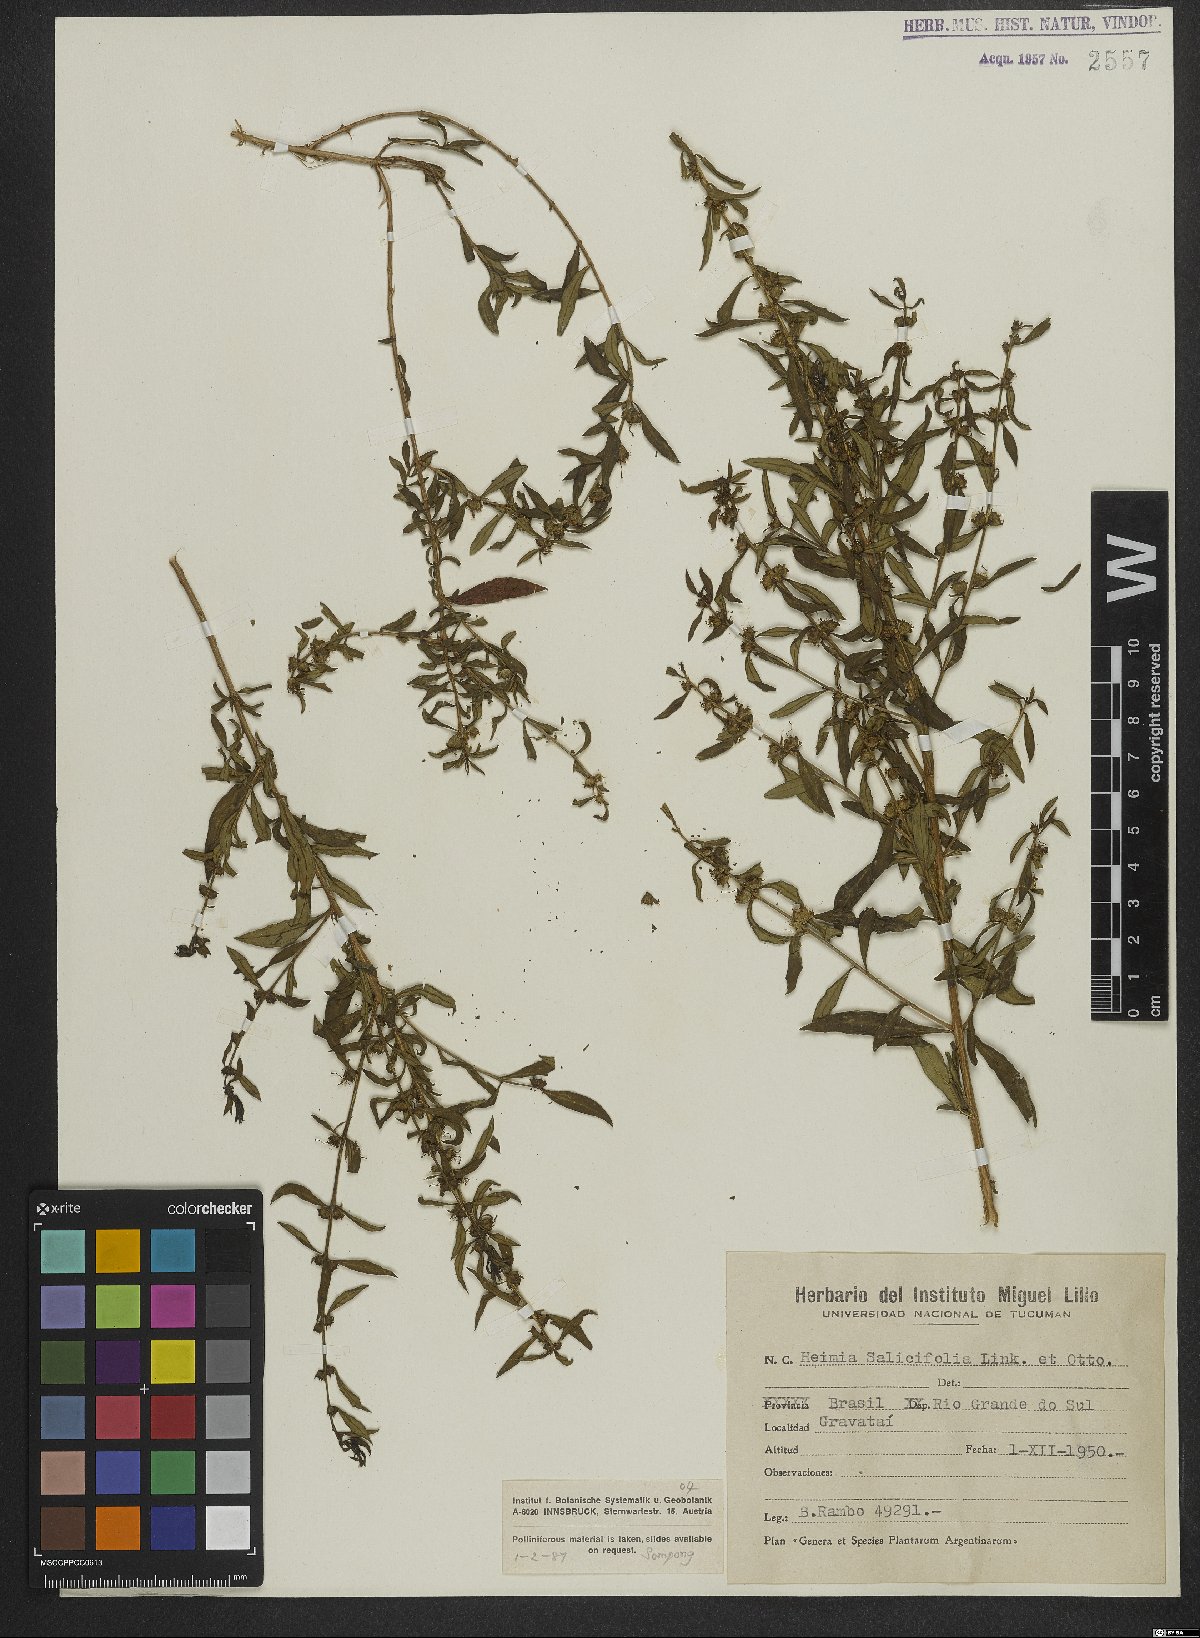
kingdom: Plantae
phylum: Tracheophyta
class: Magnoliopsida
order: Myrtales
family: Lythraceae
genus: Heimia
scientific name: Heimia salicifolia
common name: Willow-leaf heimia
